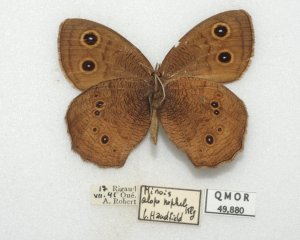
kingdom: Animalia
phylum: Arthropoda
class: Insecta
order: Lepidoptera
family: Nymphalidae
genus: Cercyonis
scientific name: Cercyonis pegala
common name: Common Wood-Nymph
